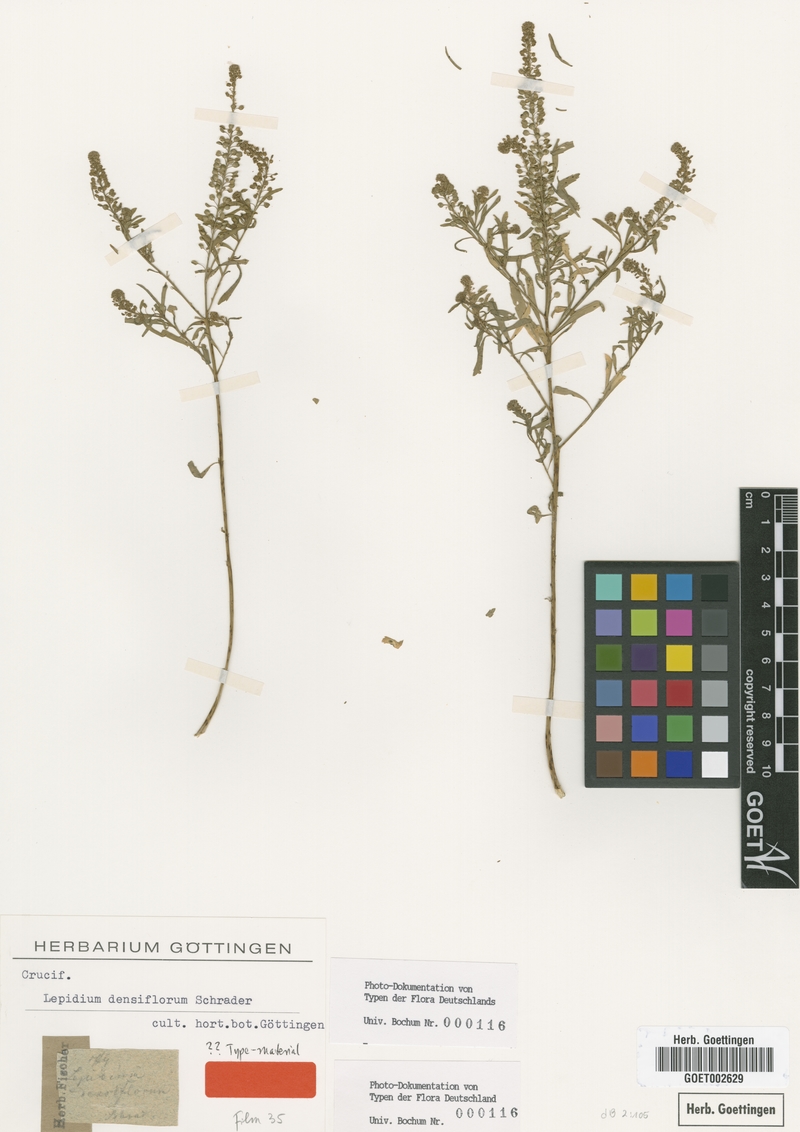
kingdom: Plantae
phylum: Tracheophyta
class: Magnoliopsida
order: Brassicales
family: Brassicaceae
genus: Lepidium
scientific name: Lepidium densiflorum
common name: Miner's pepperwort
